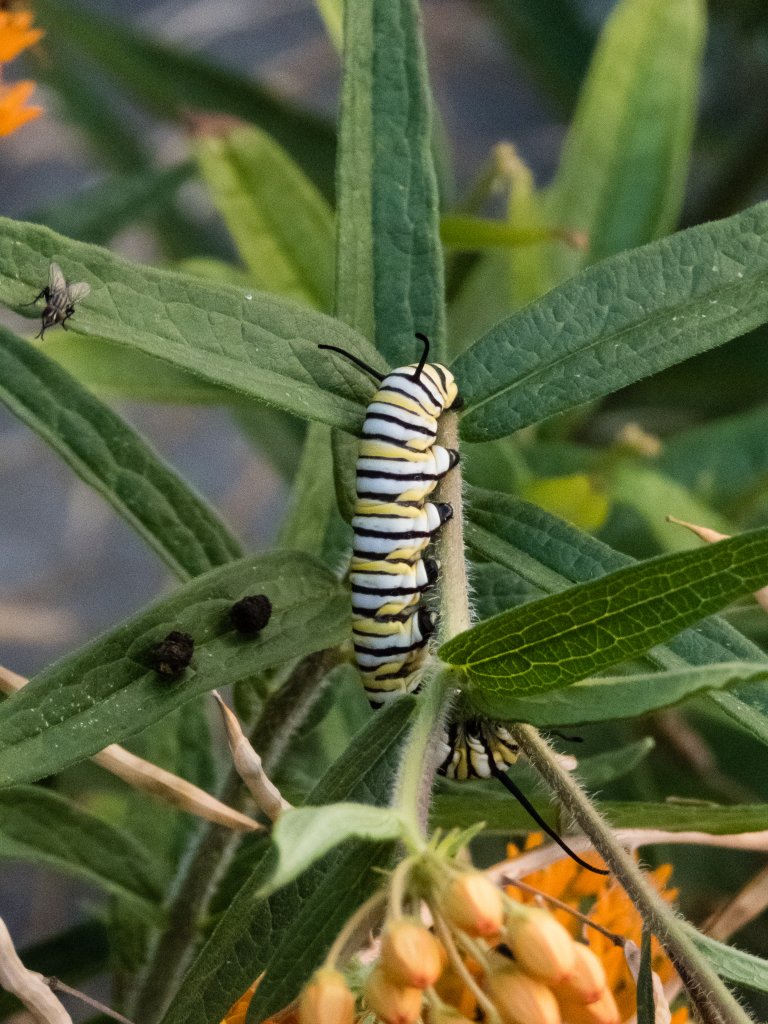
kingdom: Animalia
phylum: Arthropoda
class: Insecta
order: Lepidoptera
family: Nymphalidae
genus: Danaus
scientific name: Danaus plexippus
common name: Monarch
